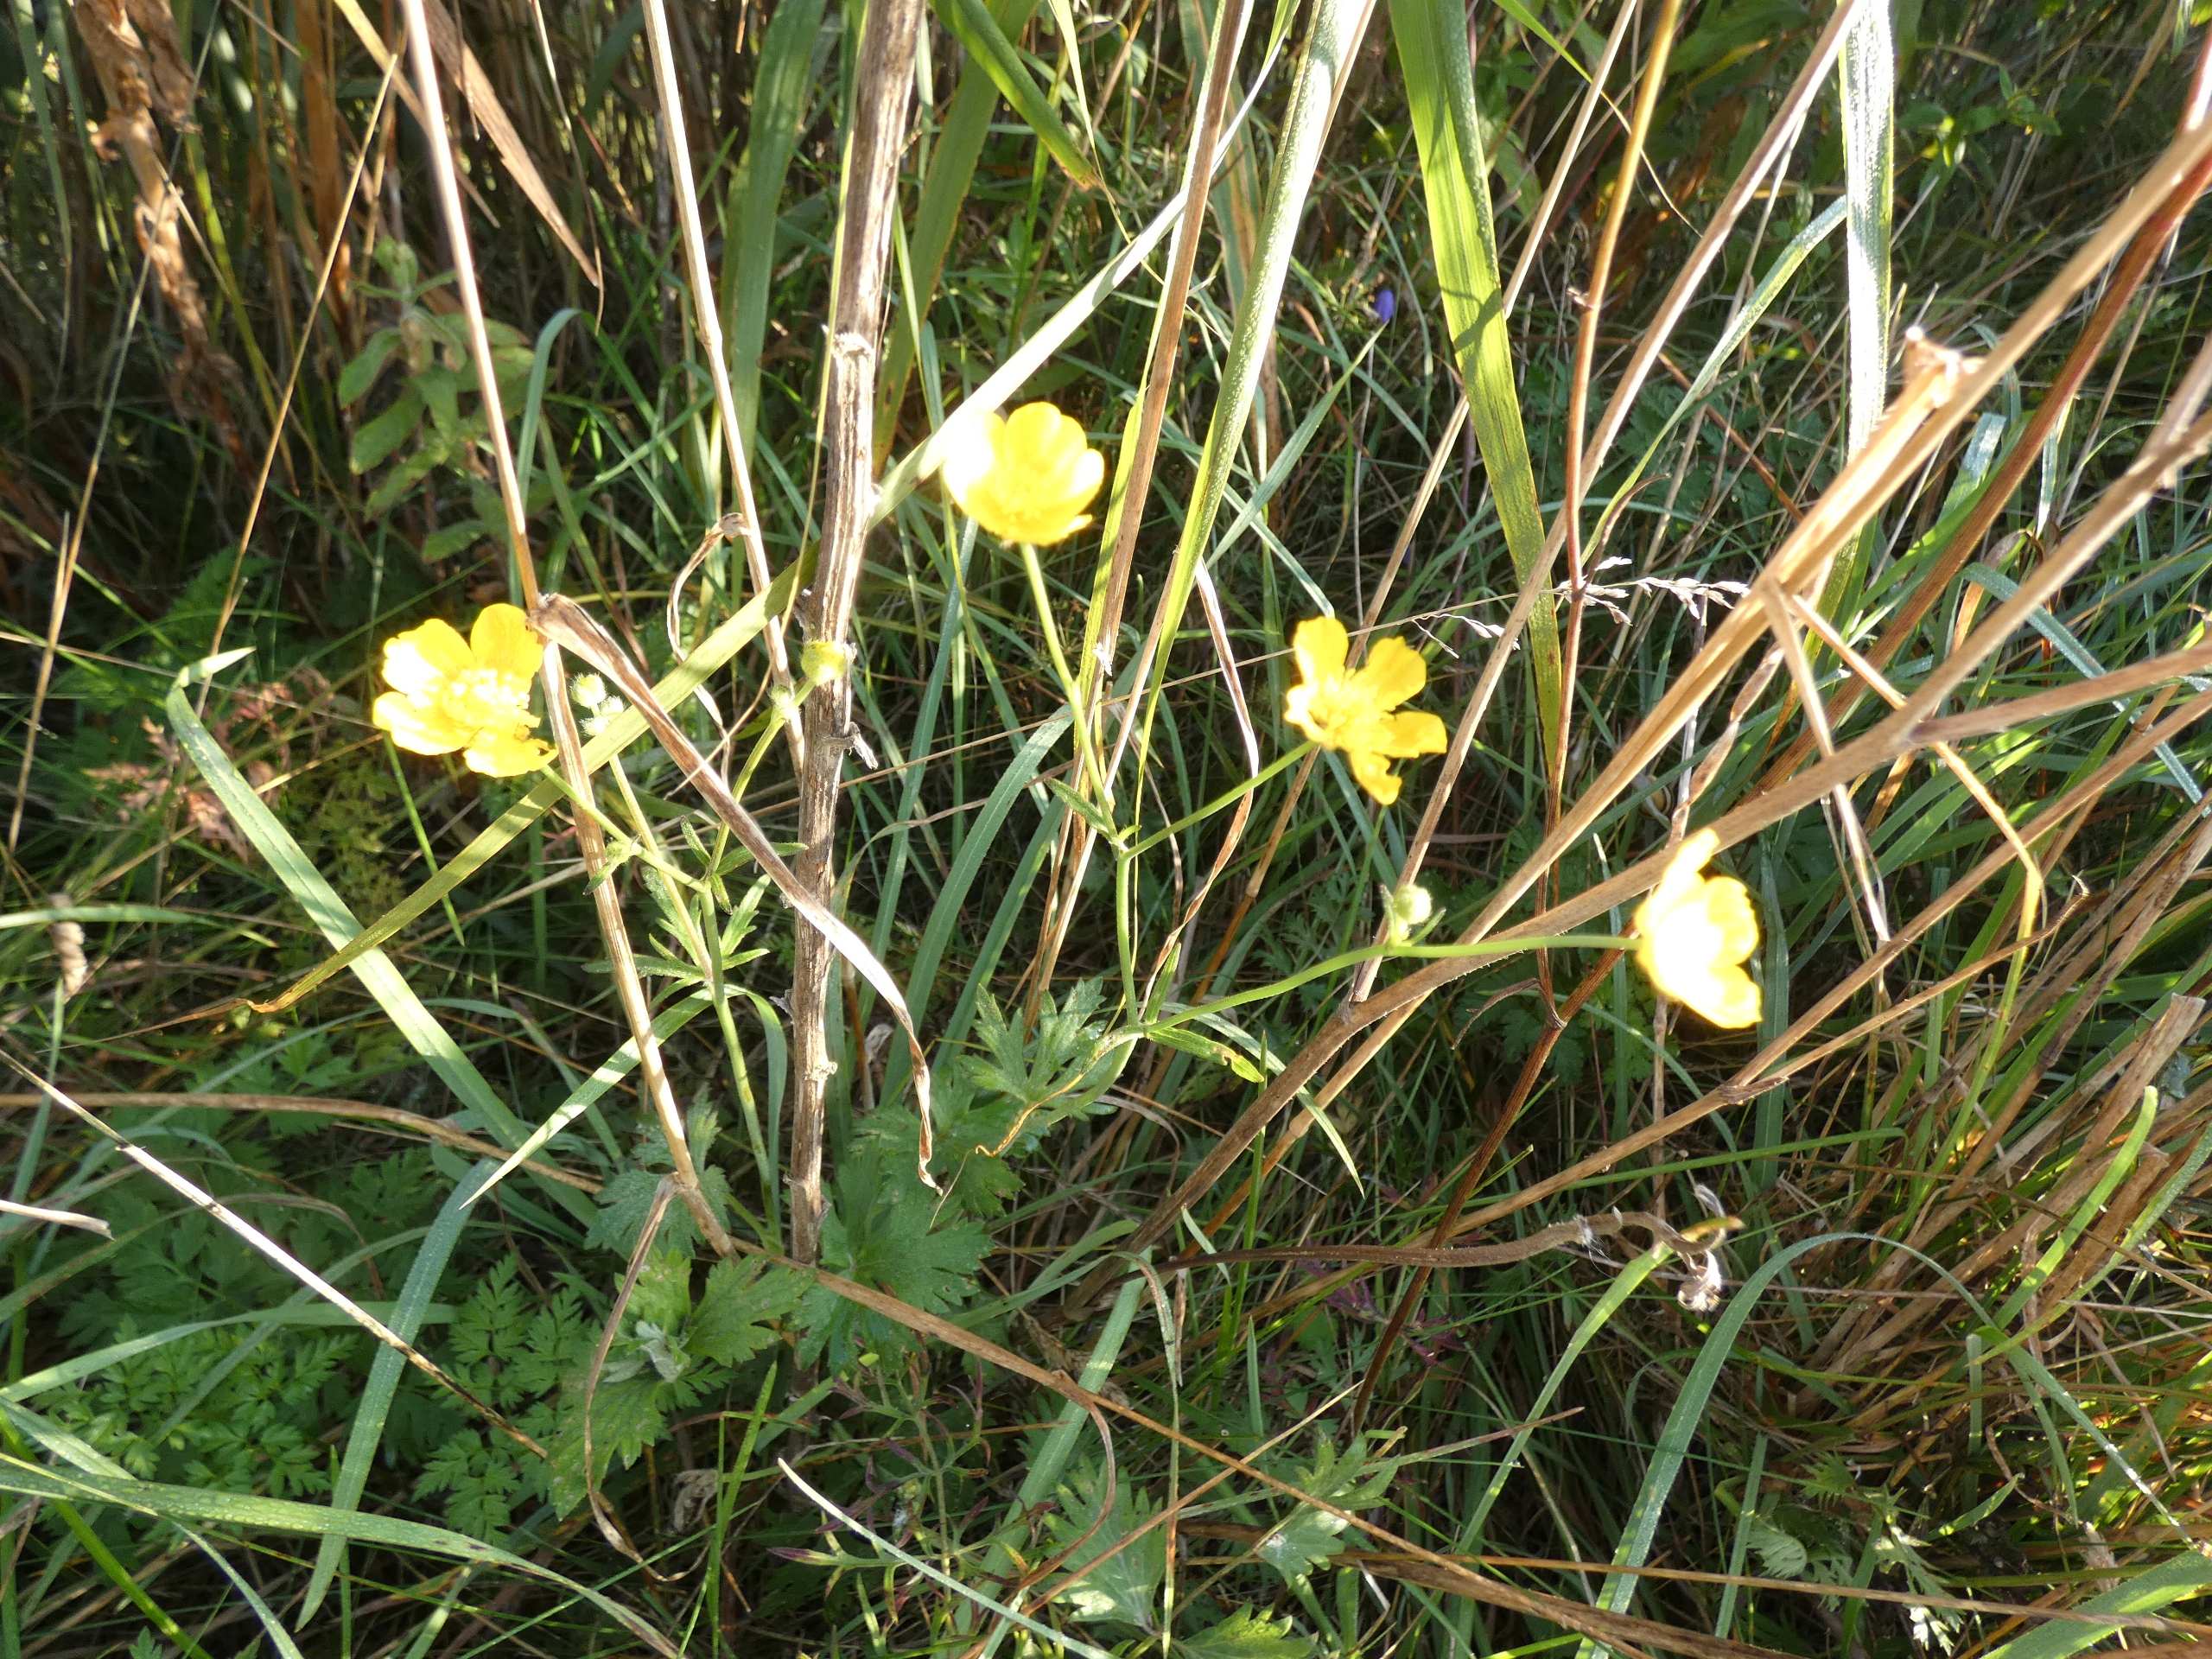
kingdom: Plantae
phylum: Tracheophyta
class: Magnoliopsida
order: Ranunculales
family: Ranunculaceae
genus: Ranunculus
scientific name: Ranunculus acris
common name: Bidende ranunkel
